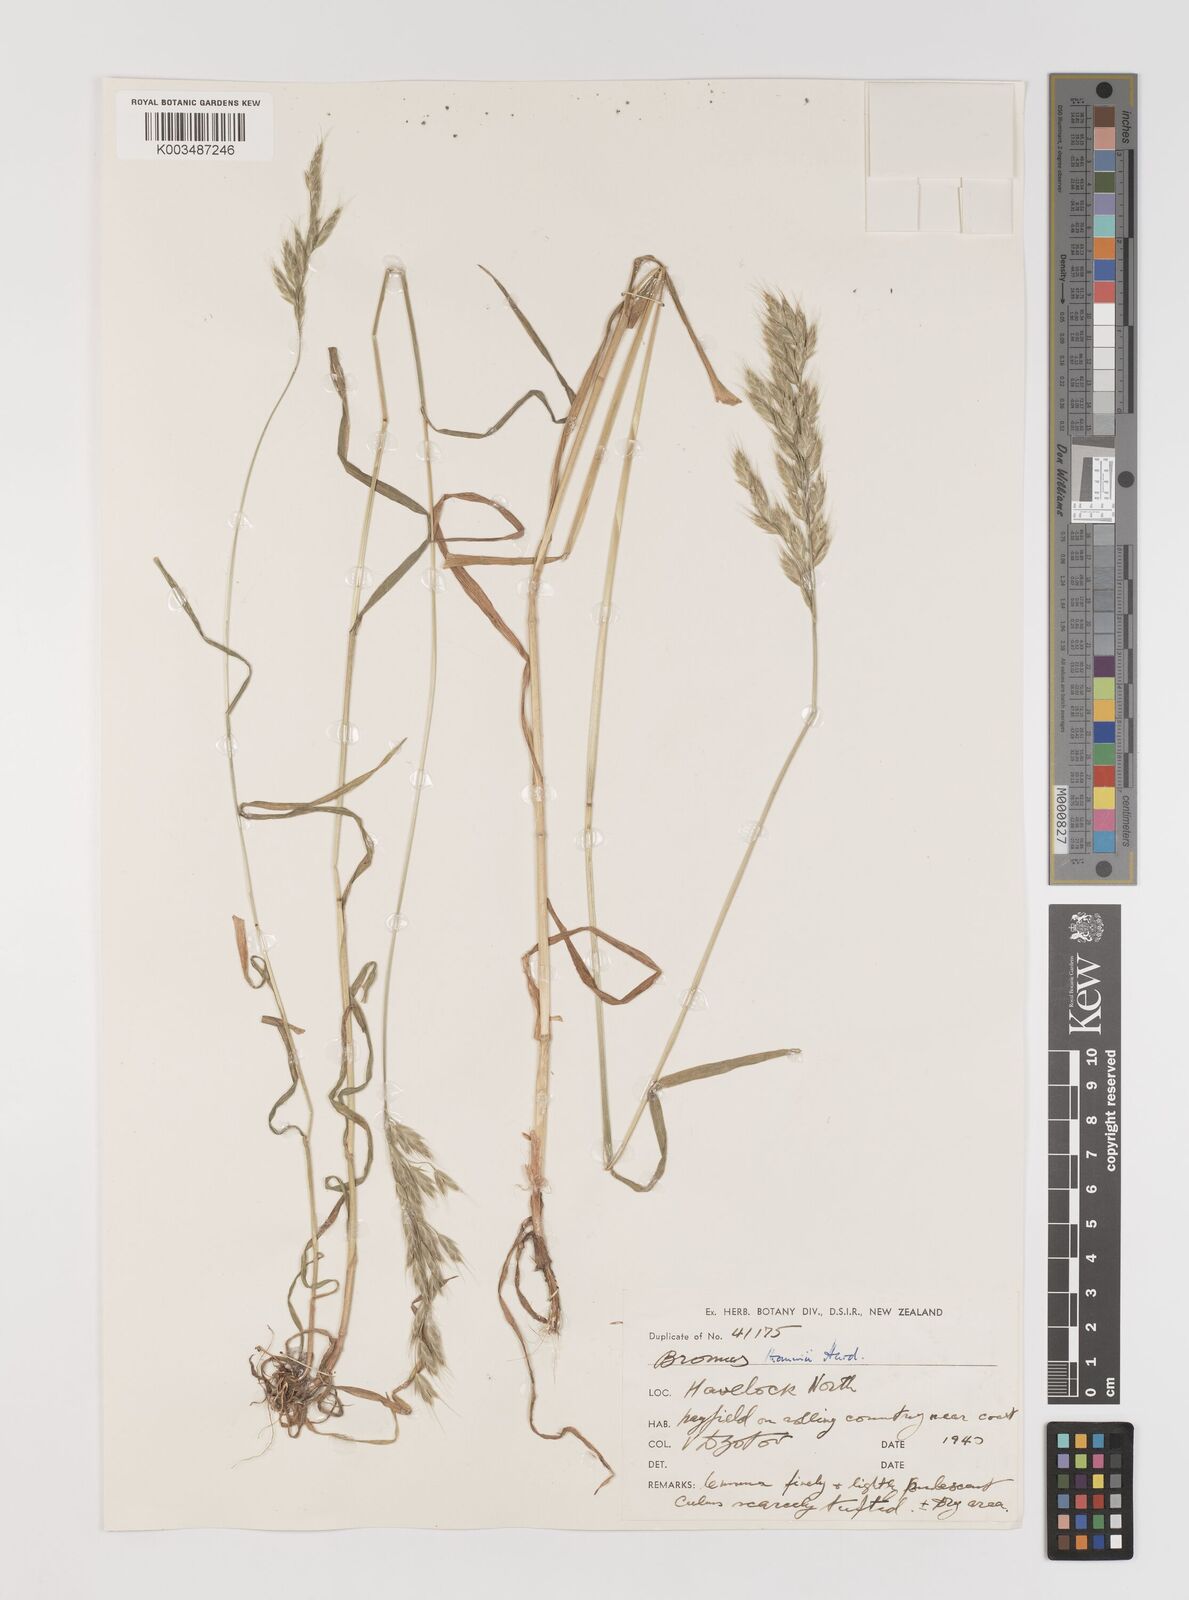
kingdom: Plantae
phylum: Tracheophyta
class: Liliopsida
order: Poales
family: Poaceae
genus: Bromus
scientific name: Bromus hordeaceus
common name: Soft brome
